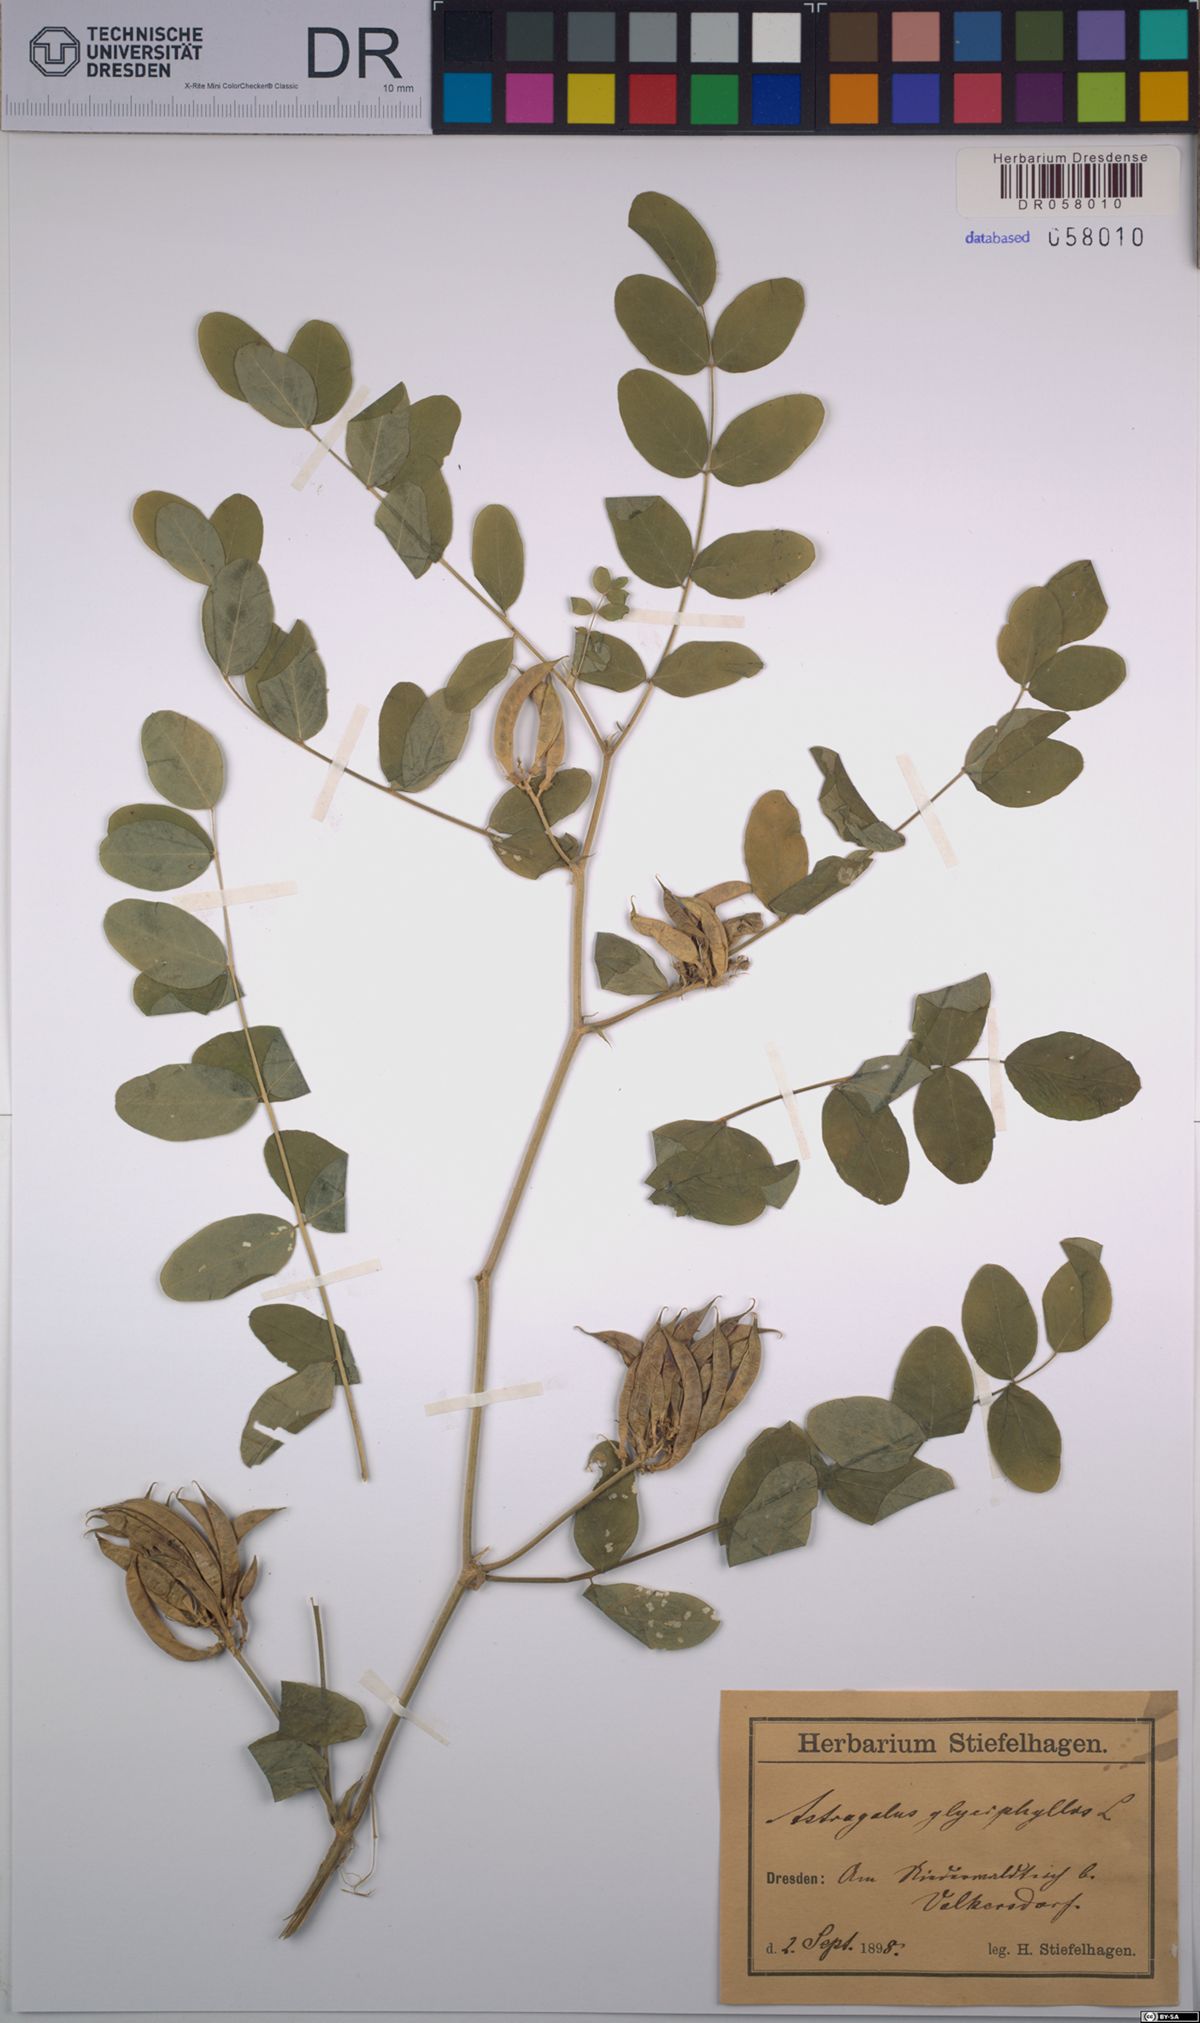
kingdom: Plantae
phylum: Tracheophyta
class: Magnoliopsida
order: Fabales
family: Fabaceae
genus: Astragalus
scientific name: Astragalus glycyphyllos
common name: Wild liquorice
